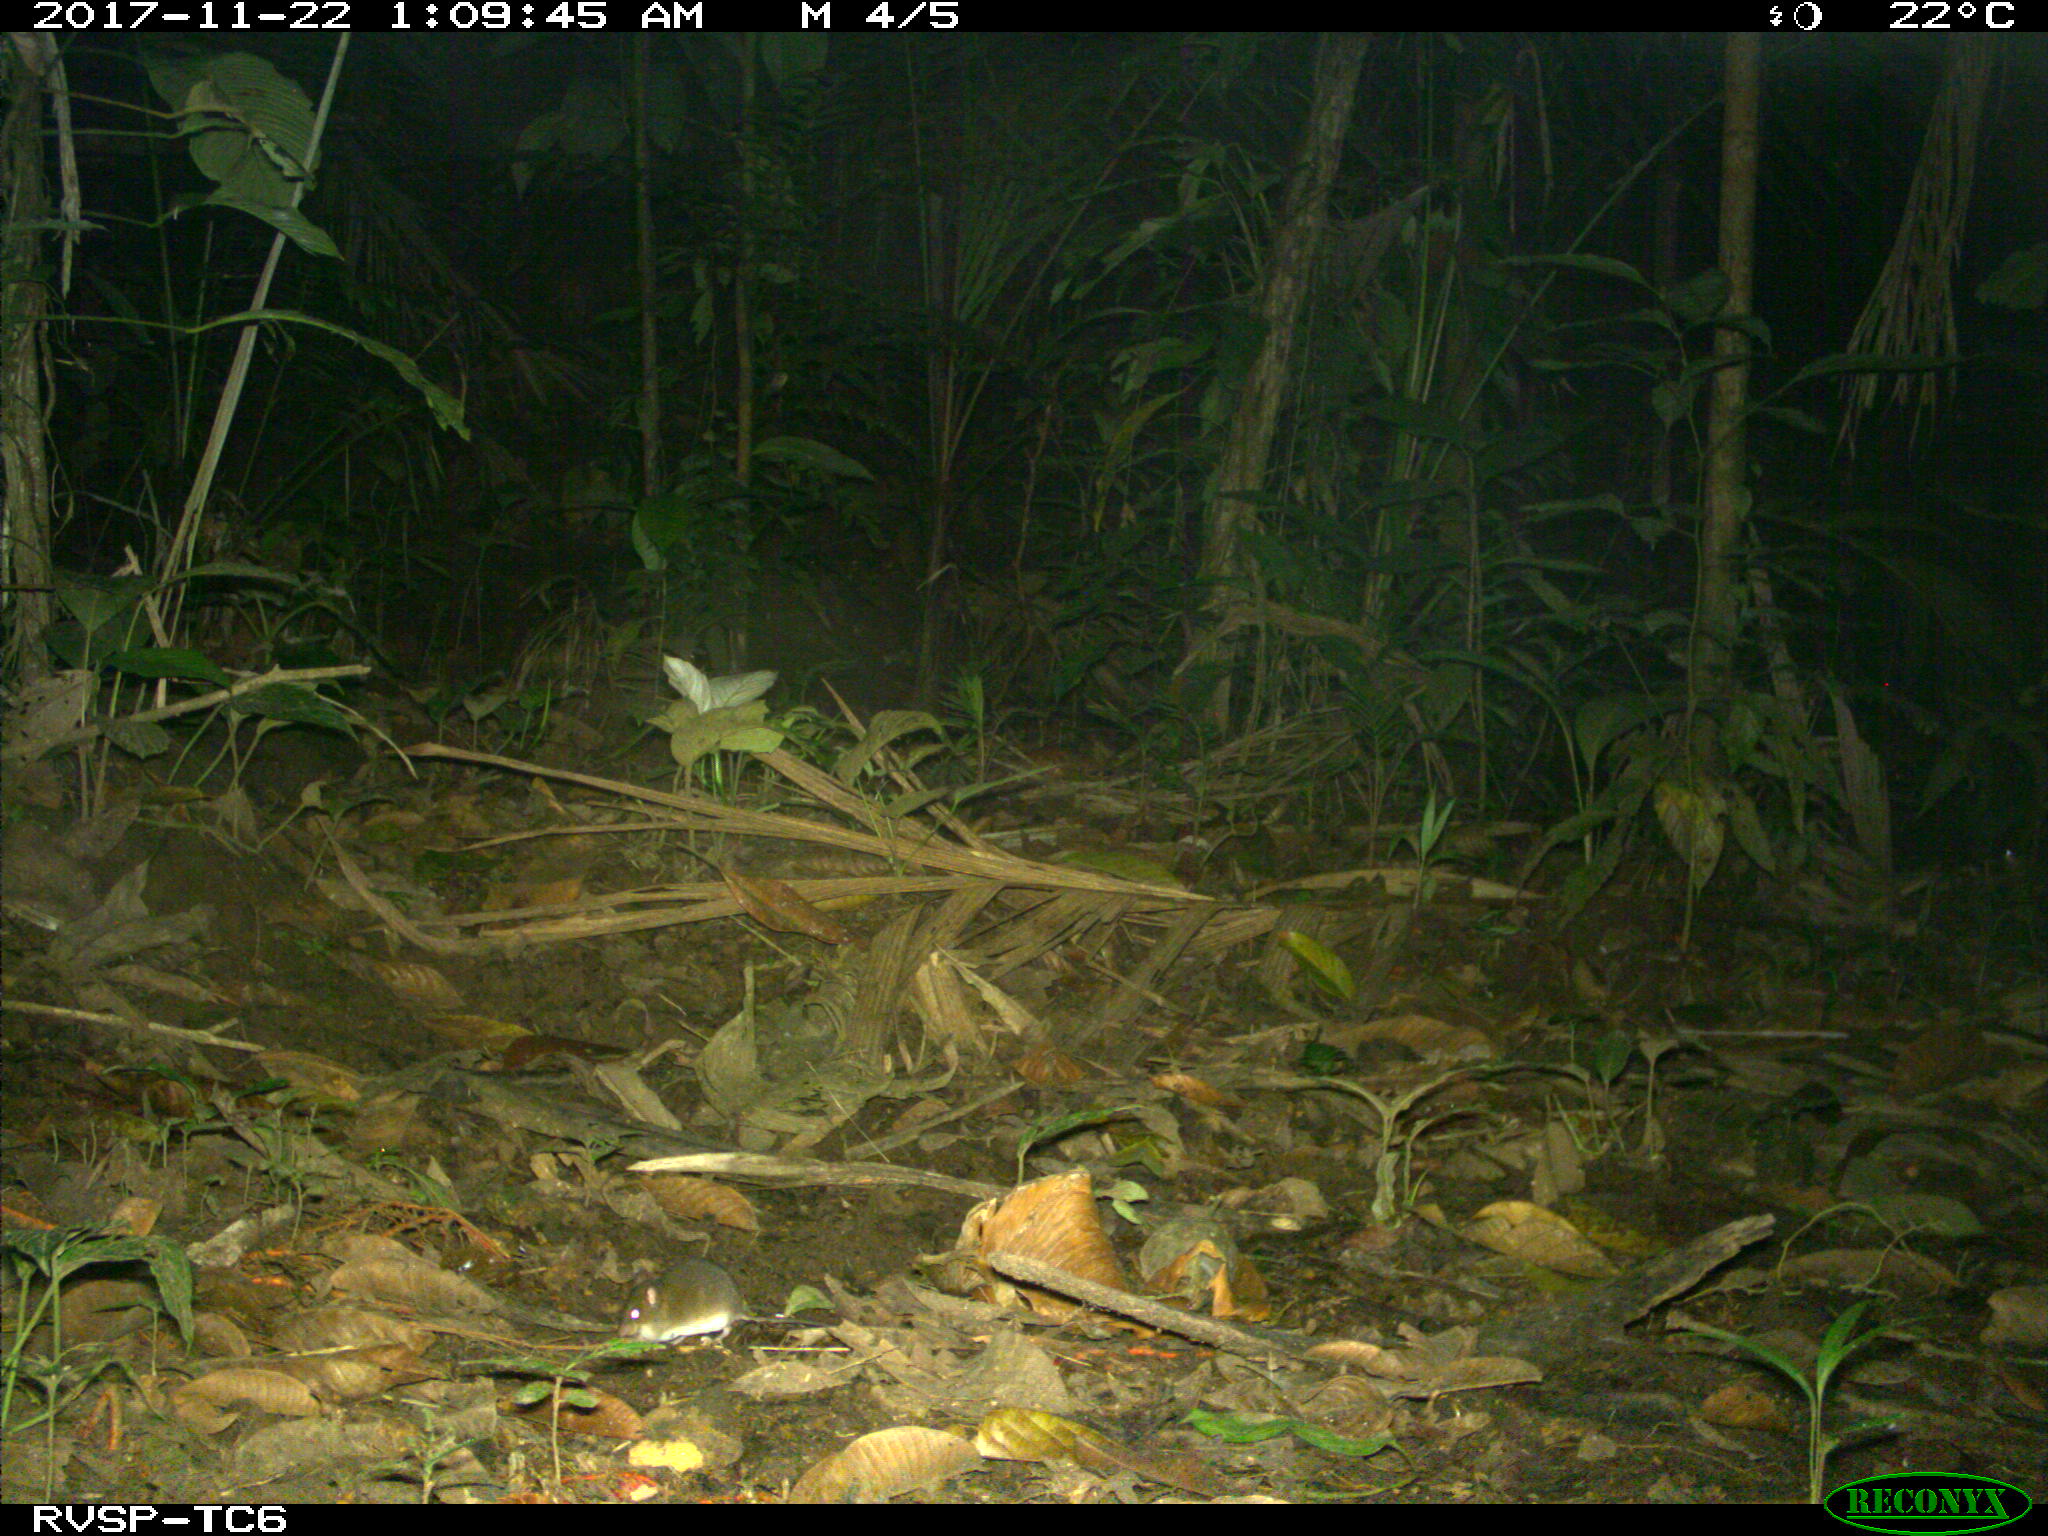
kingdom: Animalia
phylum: Chordata
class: Mammalia
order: Rodentia
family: Echimyidae
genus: Proechimys
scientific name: Proechimys
